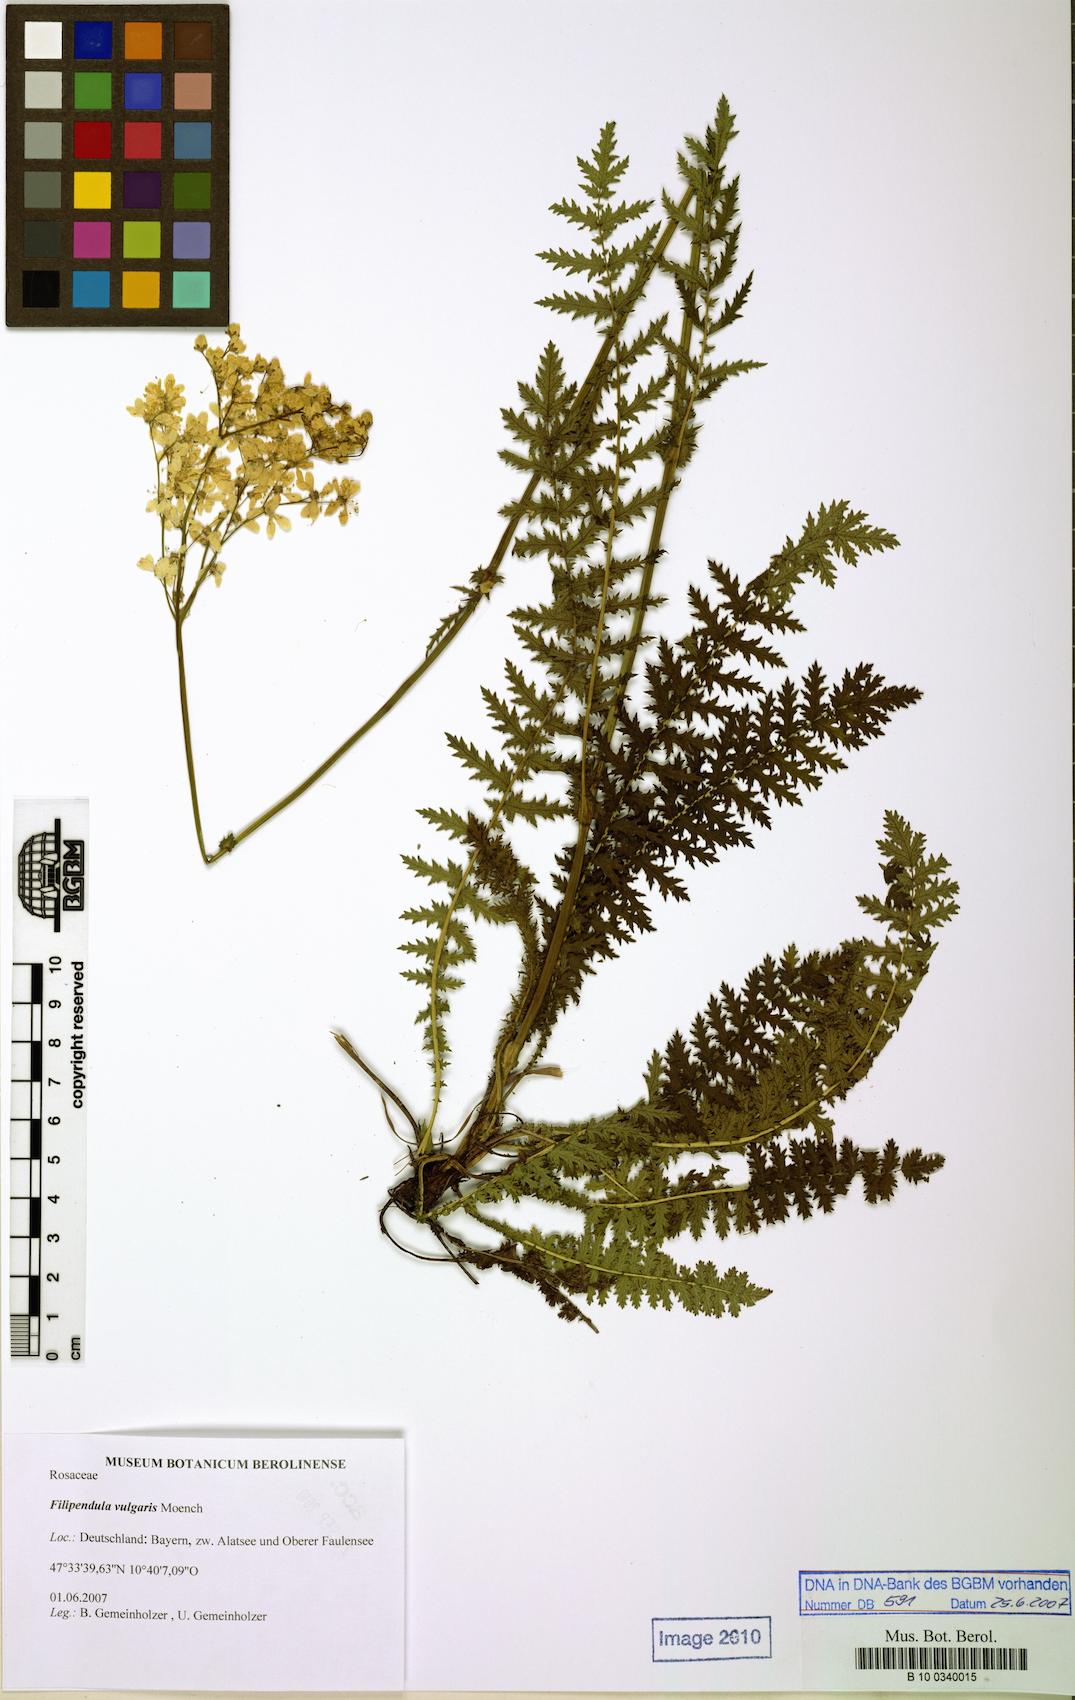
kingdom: Plantae
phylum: Tracheophyta
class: Magnoliopsida
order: Rosales
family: Rosaceae
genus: Filipendula
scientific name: Filipendula vulgaris
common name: Dropwort
